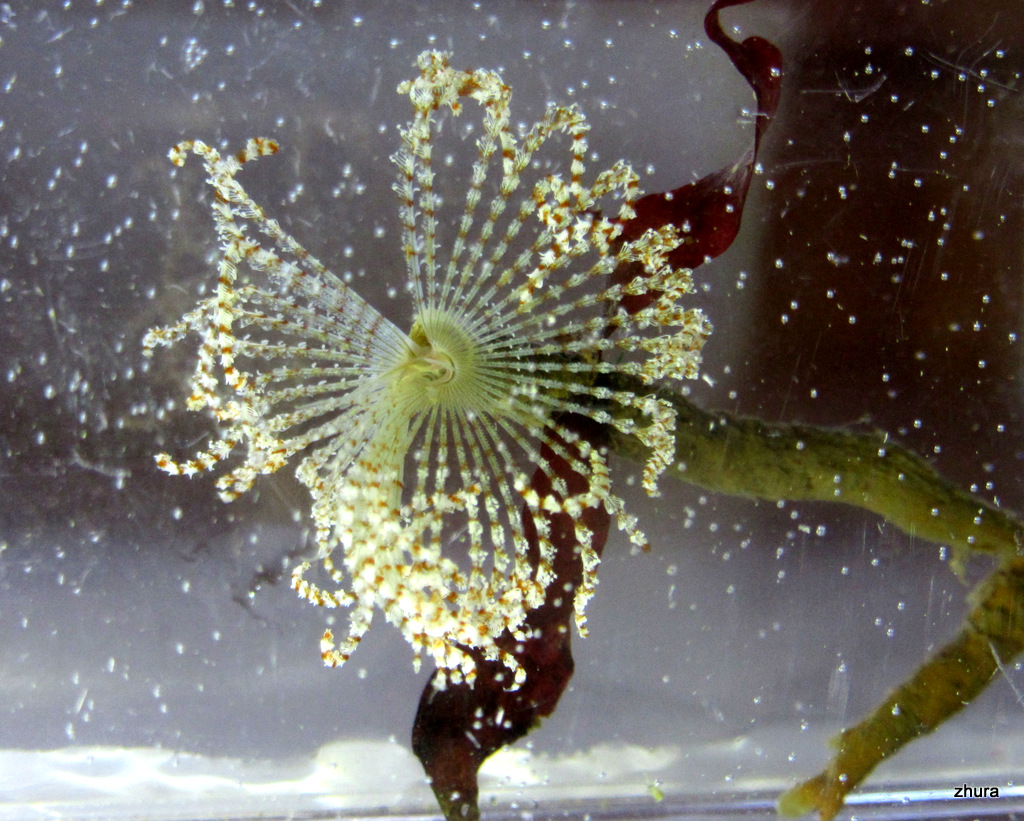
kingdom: Animalia
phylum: Annelida
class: Polychaeta
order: Sabellida
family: Sabellidae
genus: Branchiomma
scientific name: Branchiomma arcticum
